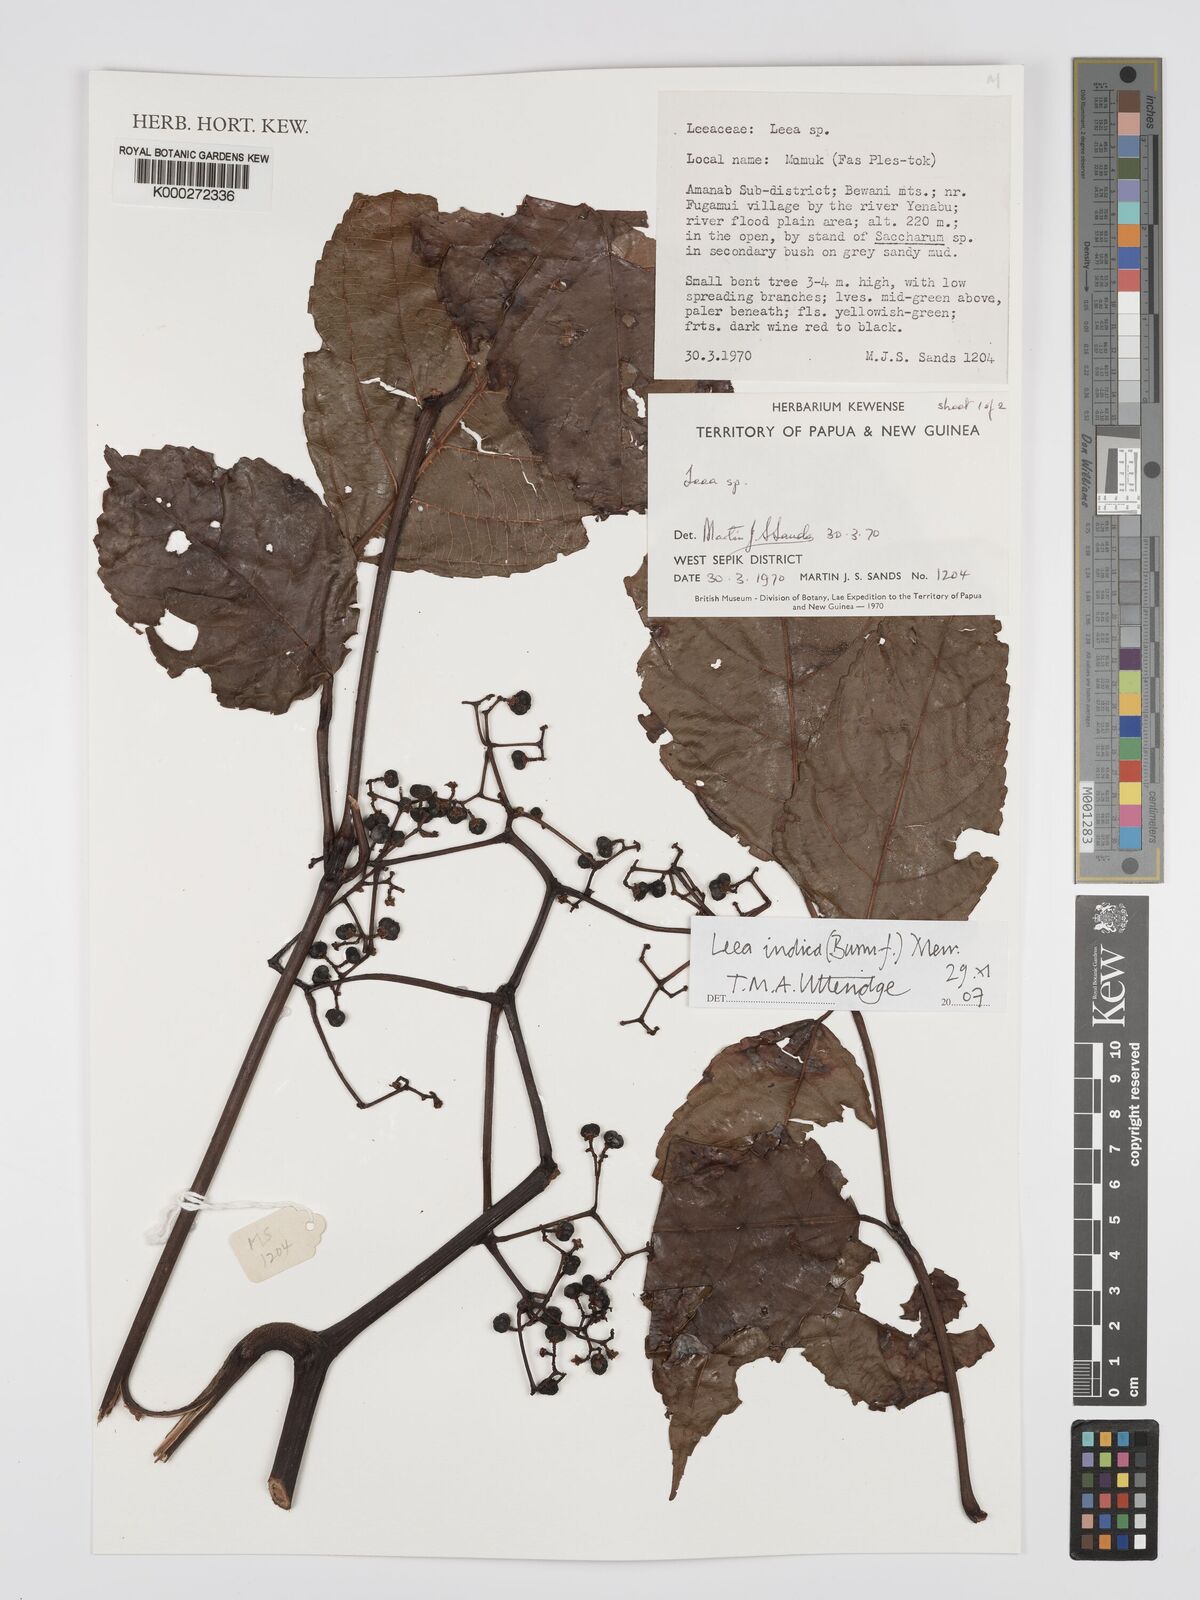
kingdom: Plantae
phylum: Tracheophyta
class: Magnoliopsida
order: Vitales
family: Vitaceae
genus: Leea
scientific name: Leea indica
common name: Bandicoot-berry
